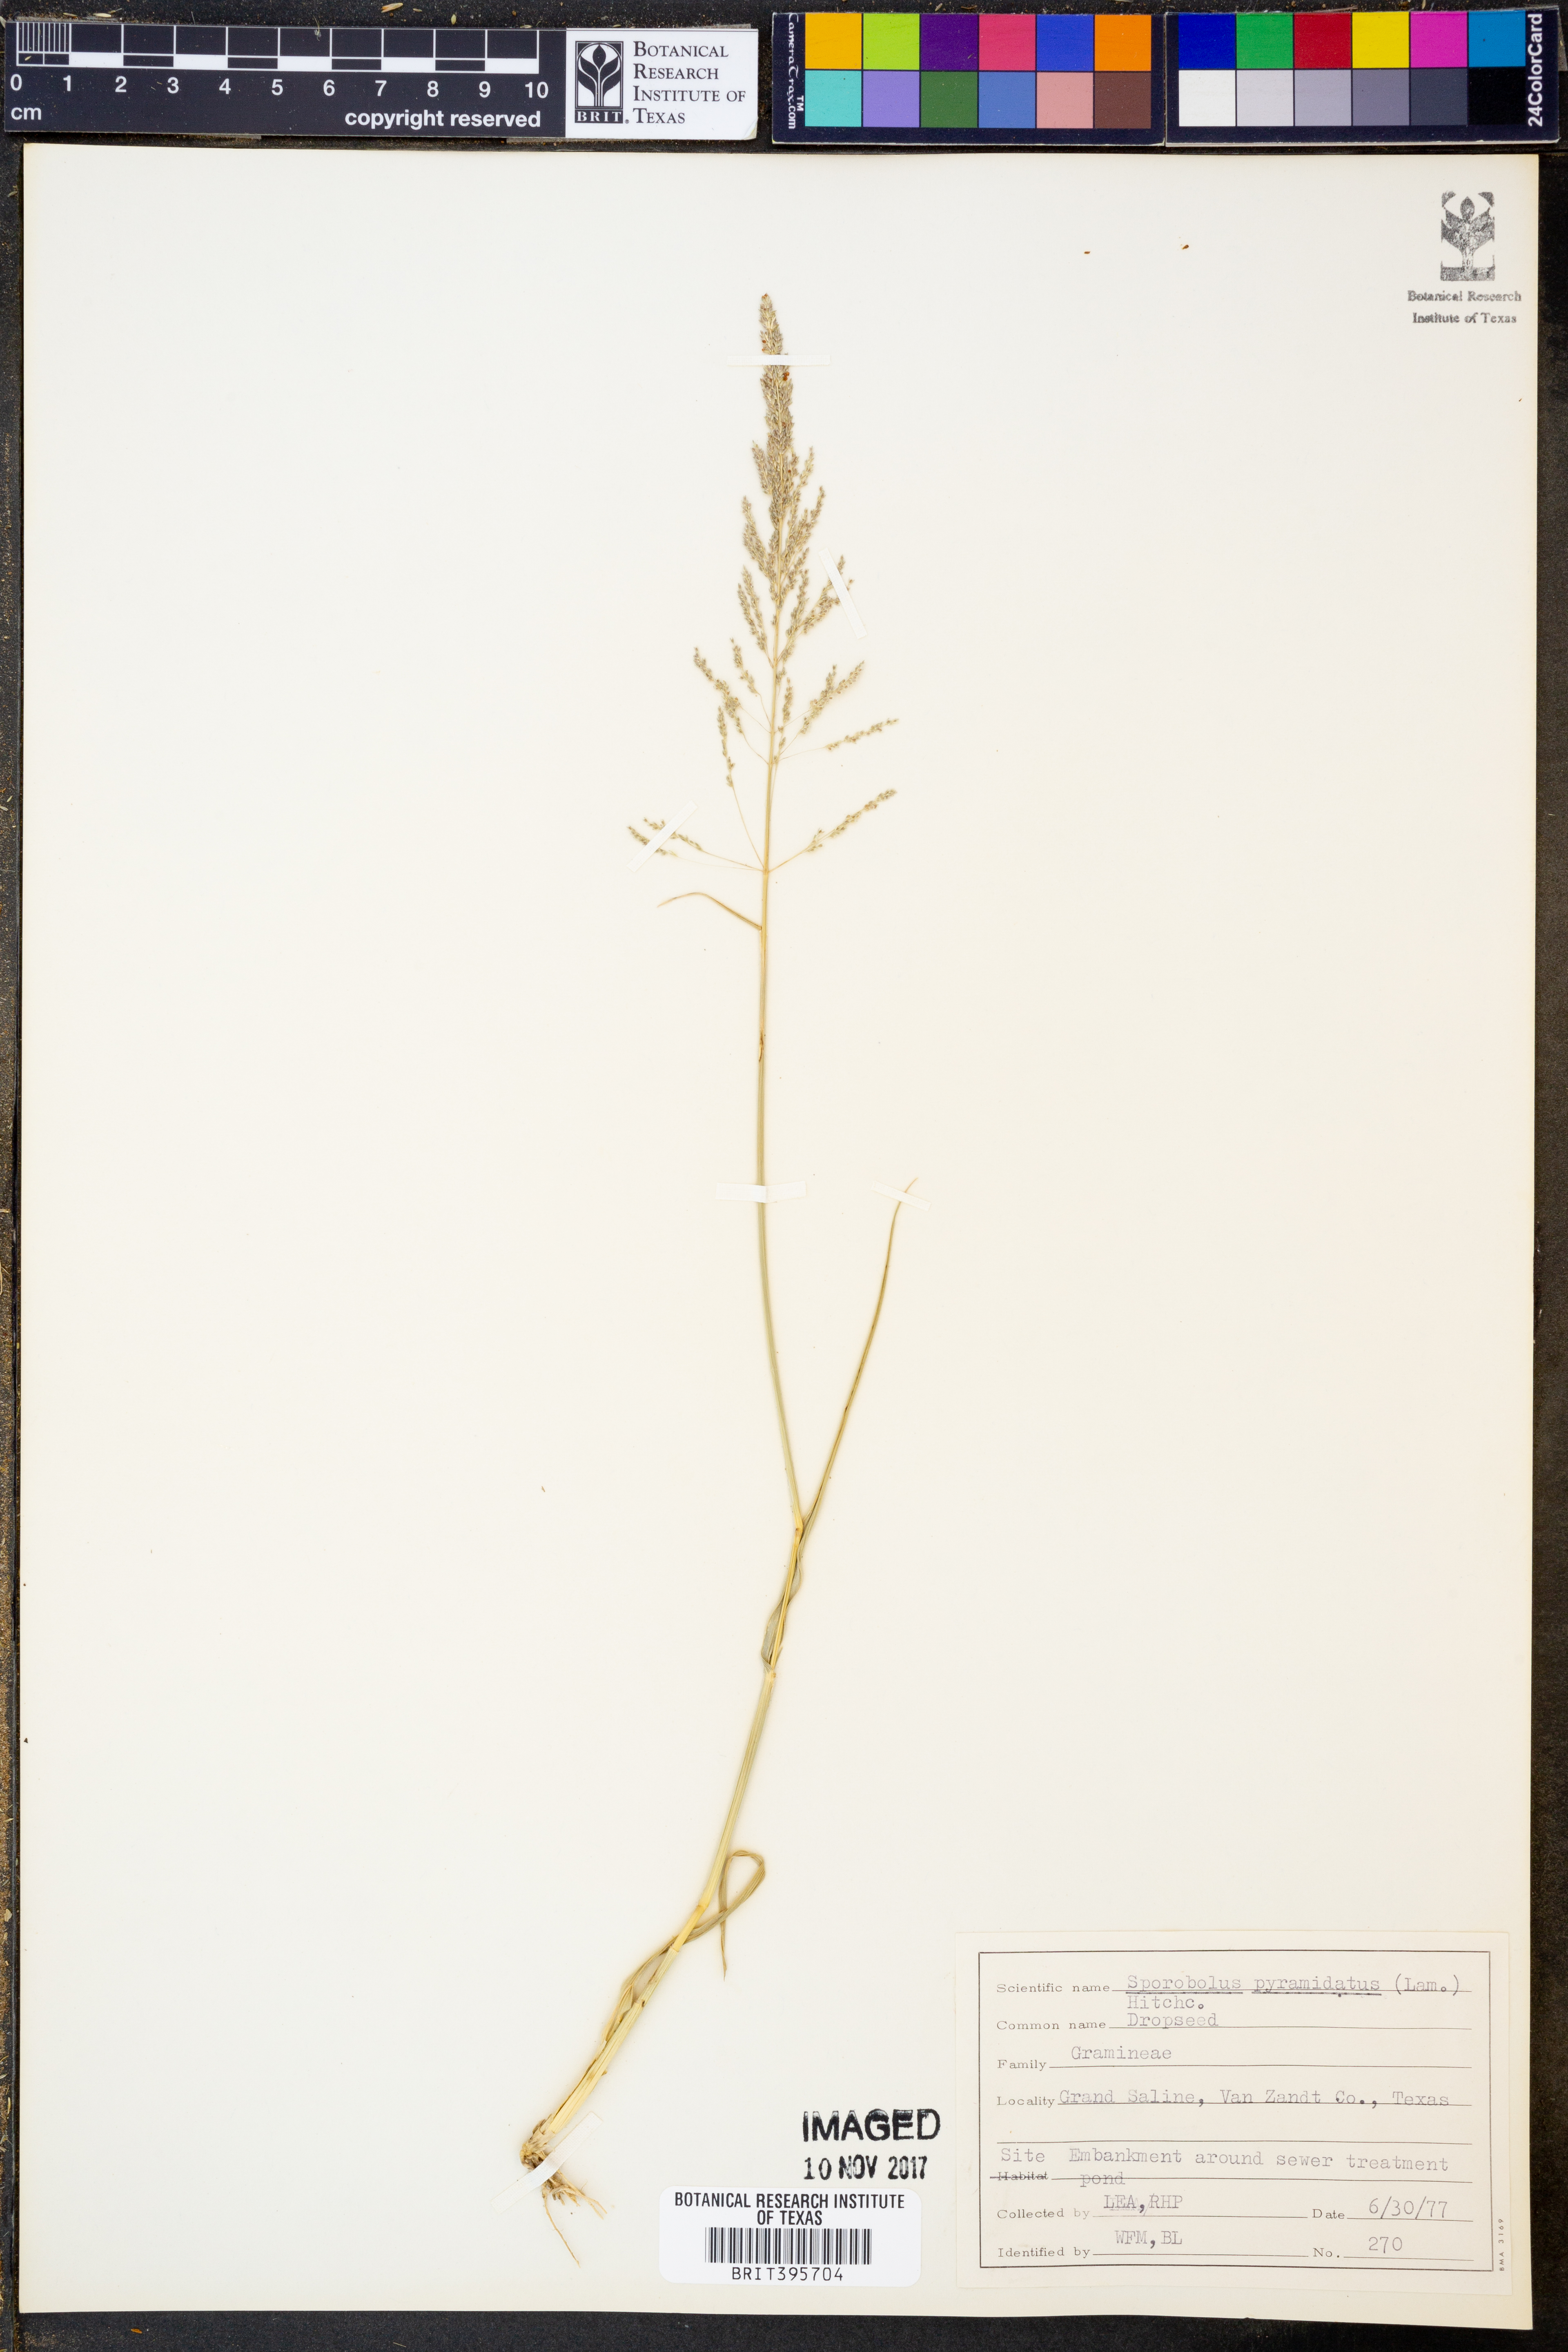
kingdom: Plantae
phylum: Tracheophyta
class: Liliopsida
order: Poales
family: Poaceae
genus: Sporobolus
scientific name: Sporobolus pyramidatus
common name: Whorled dropseed
